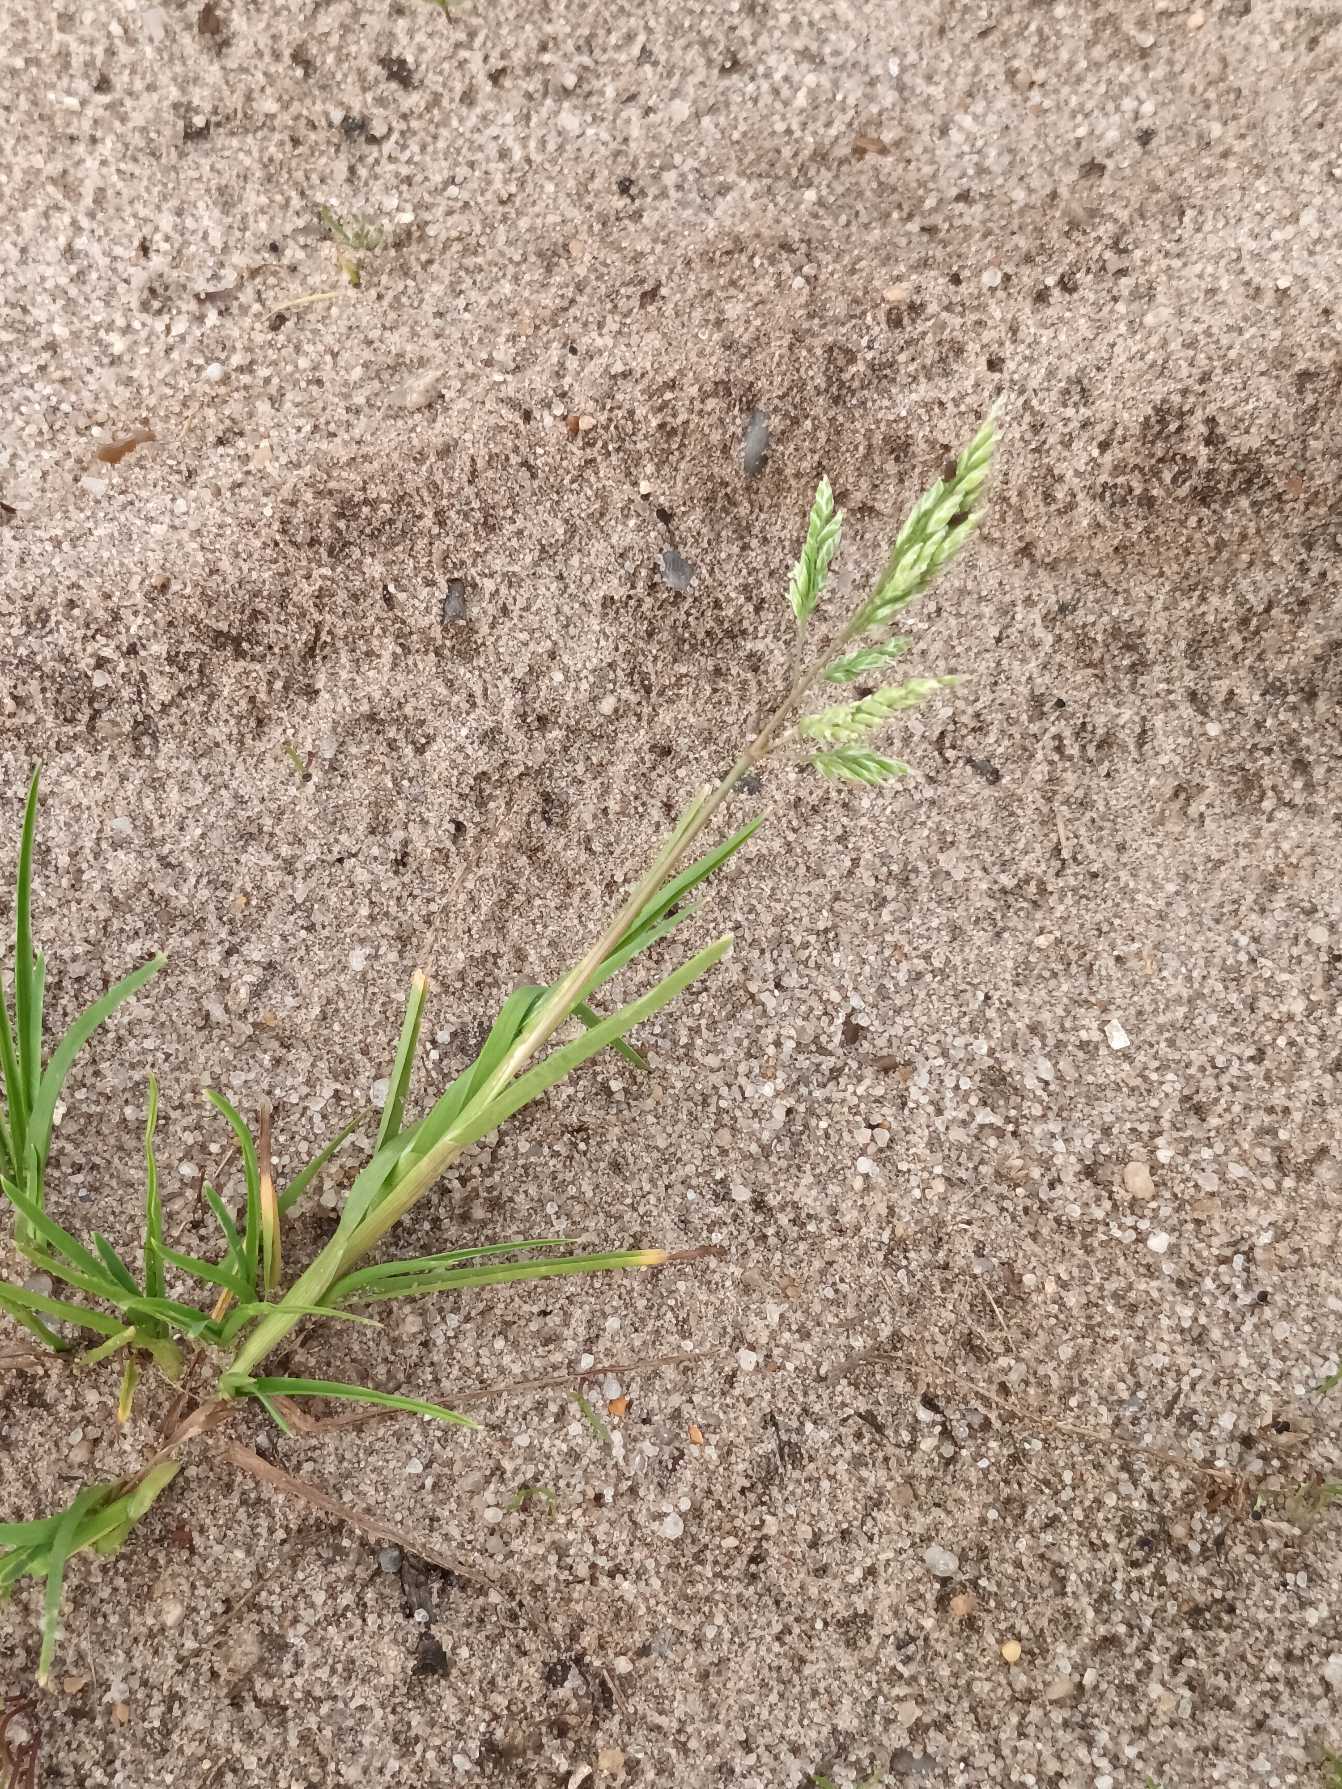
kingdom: Plantae
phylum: Tracheophyta
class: Liliopsida
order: Poales
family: Poaceae
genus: Poa
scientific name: Poa annua
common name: Enårig rapgræs
